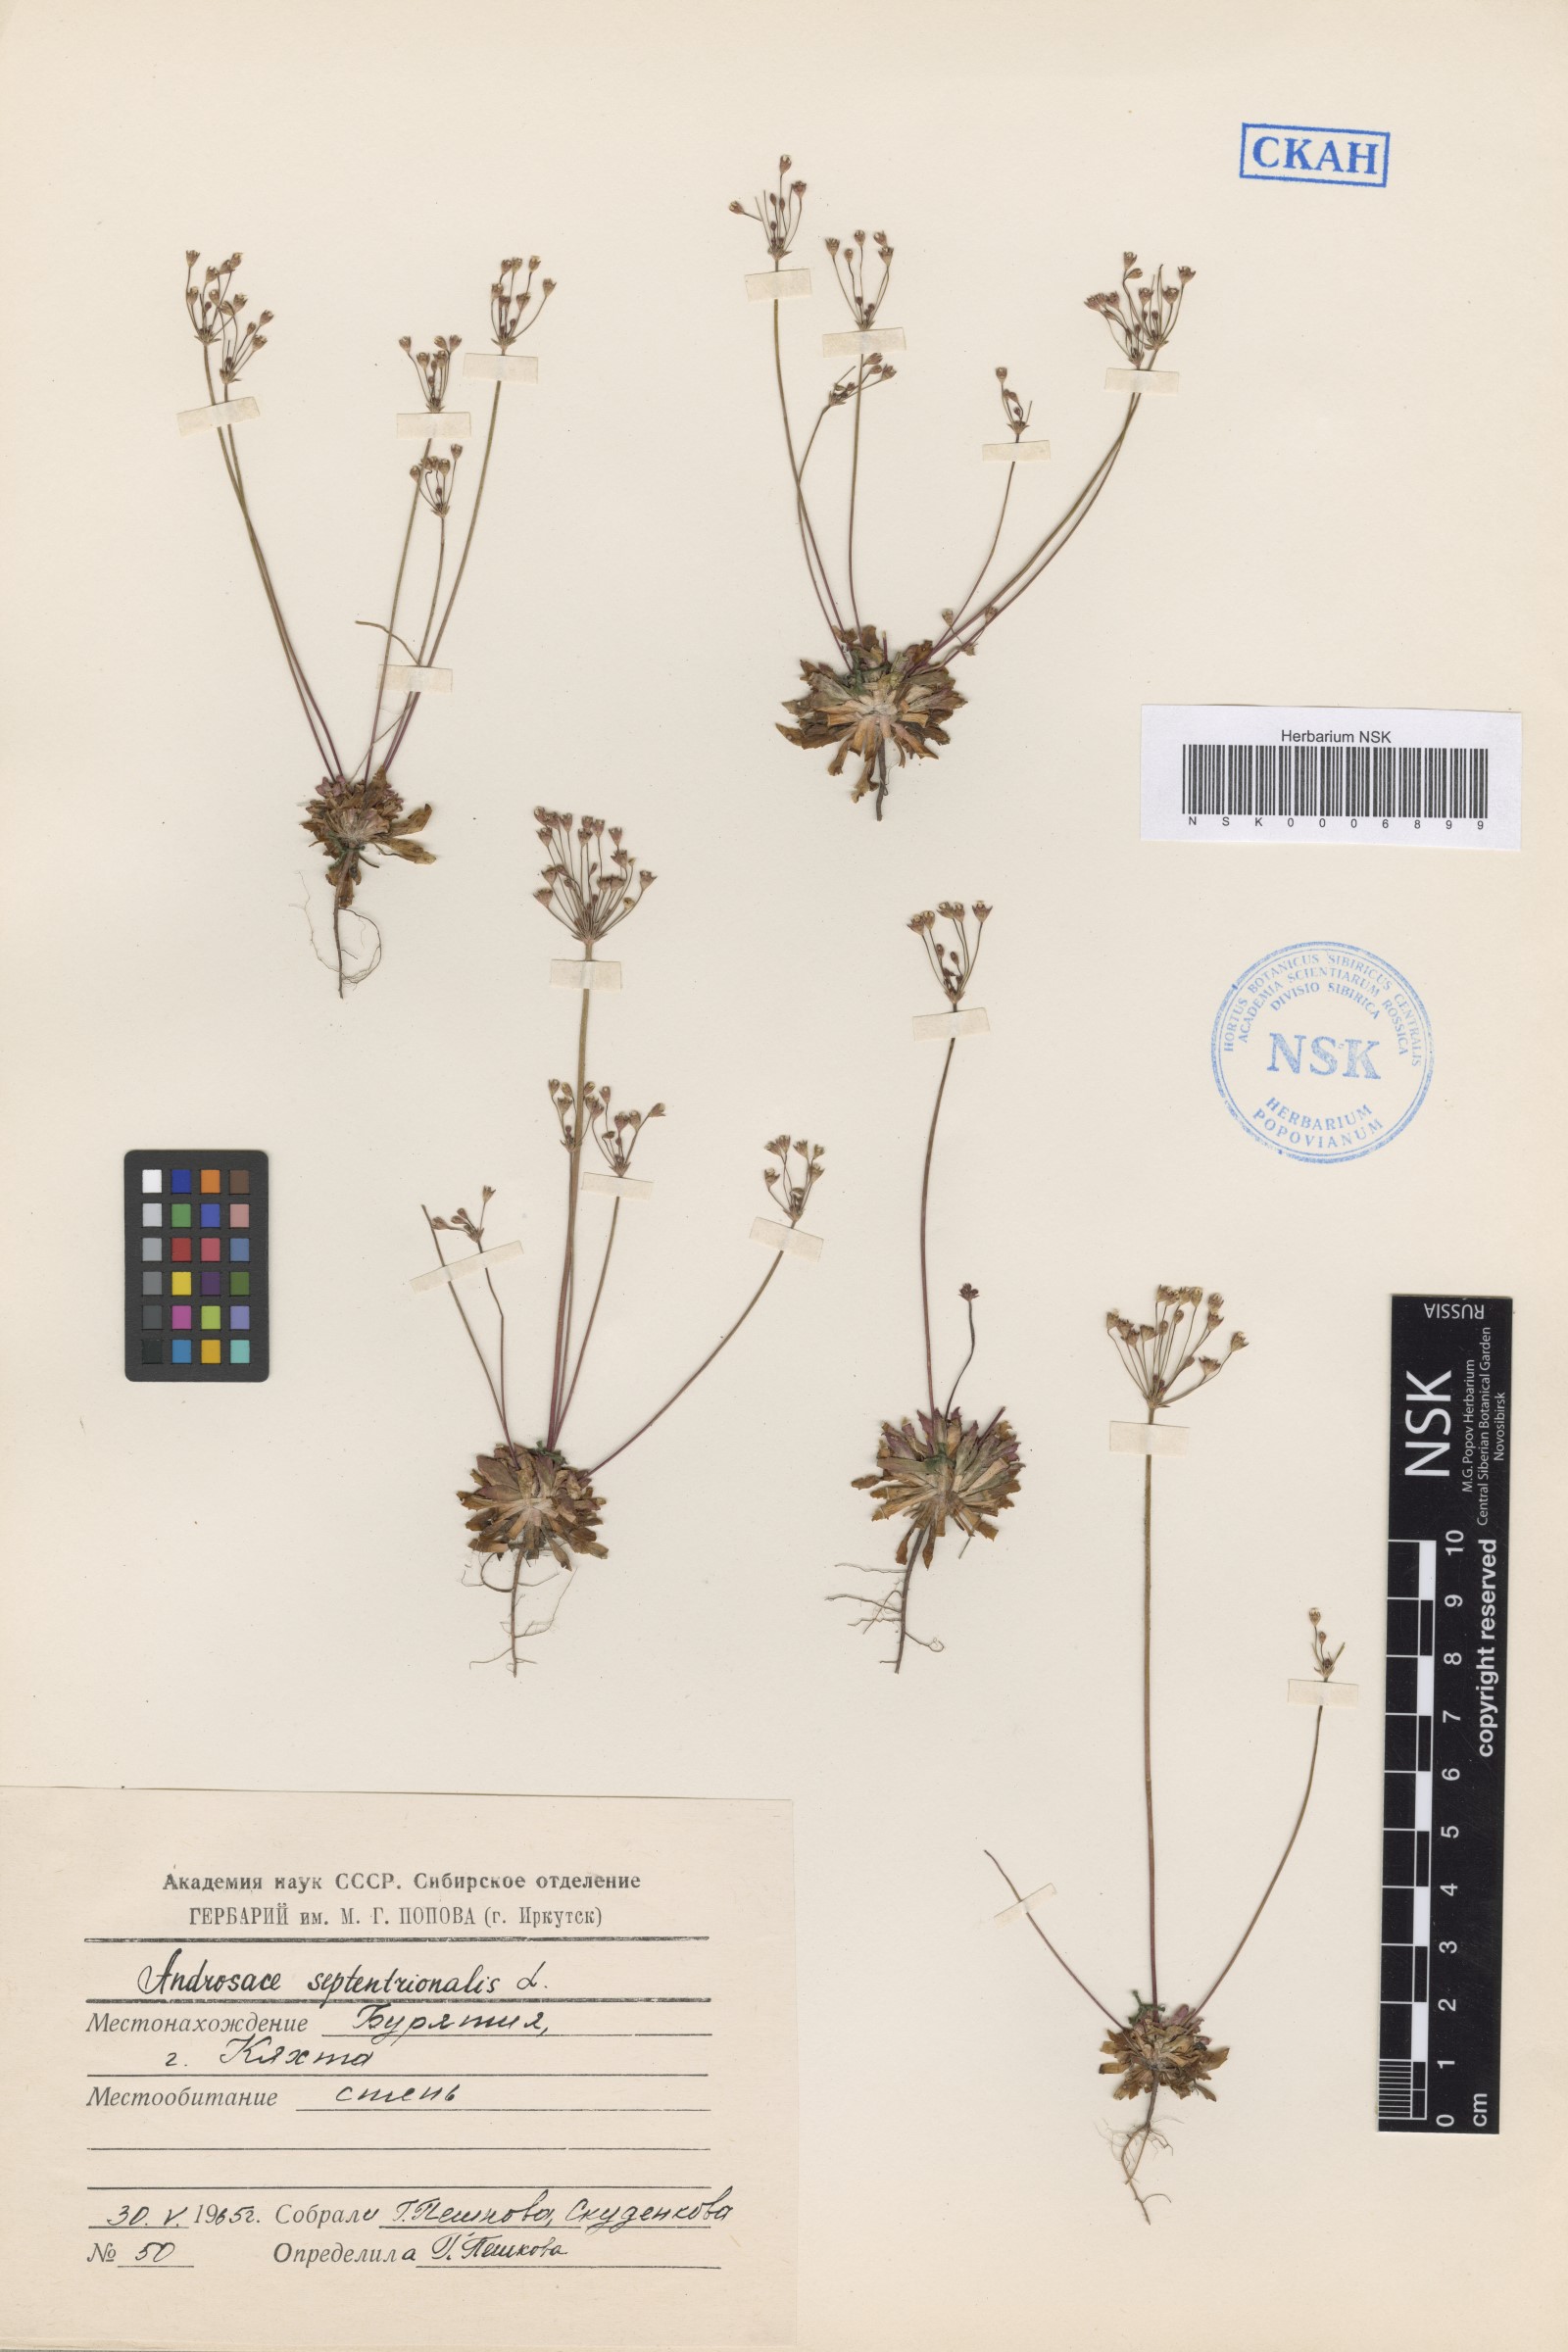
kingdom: Plantae
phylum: Tracheophyta
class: Magnoliopsida
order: Ericales
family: Primulaceae
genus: Androsace
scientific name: Androsace septentrionalis
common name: Hairy northern fairy-candelabra
